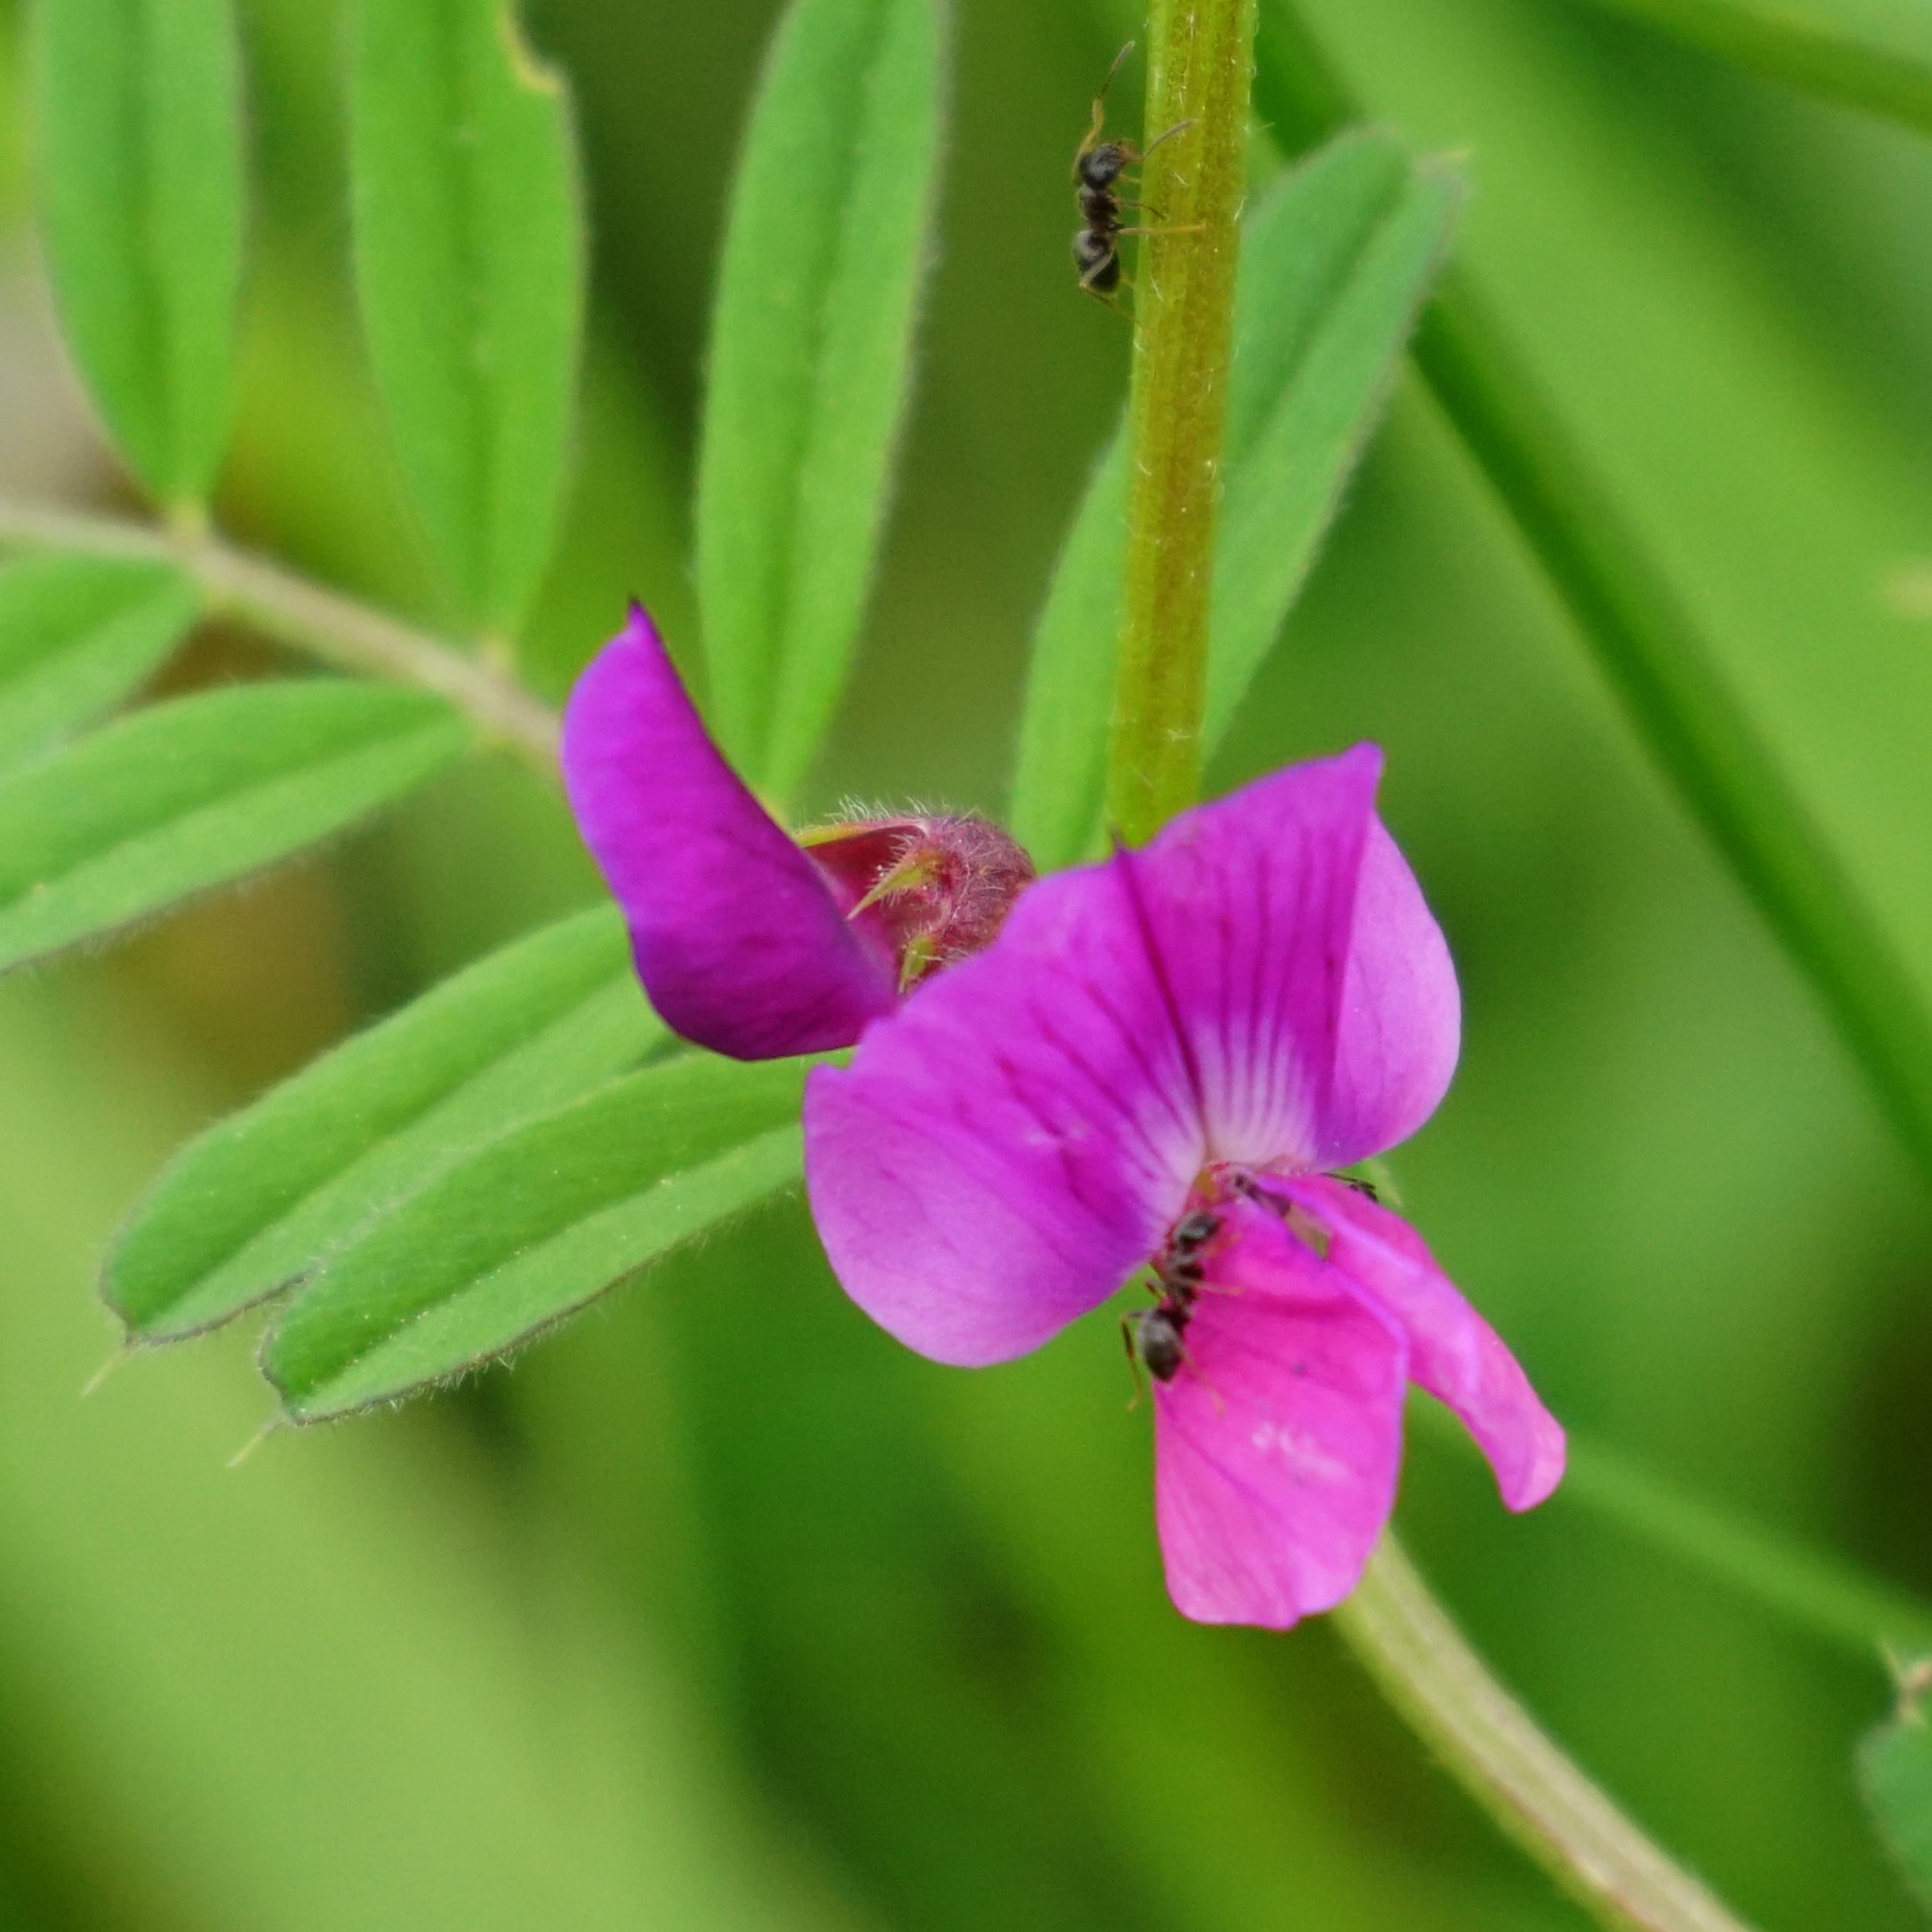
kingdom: Plantae
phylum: Tracheophyta
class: Magnoliopsida
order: Fabales
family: Fabaceae
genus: Vicia
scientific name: Vicia sativa
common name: Foder-vikke
